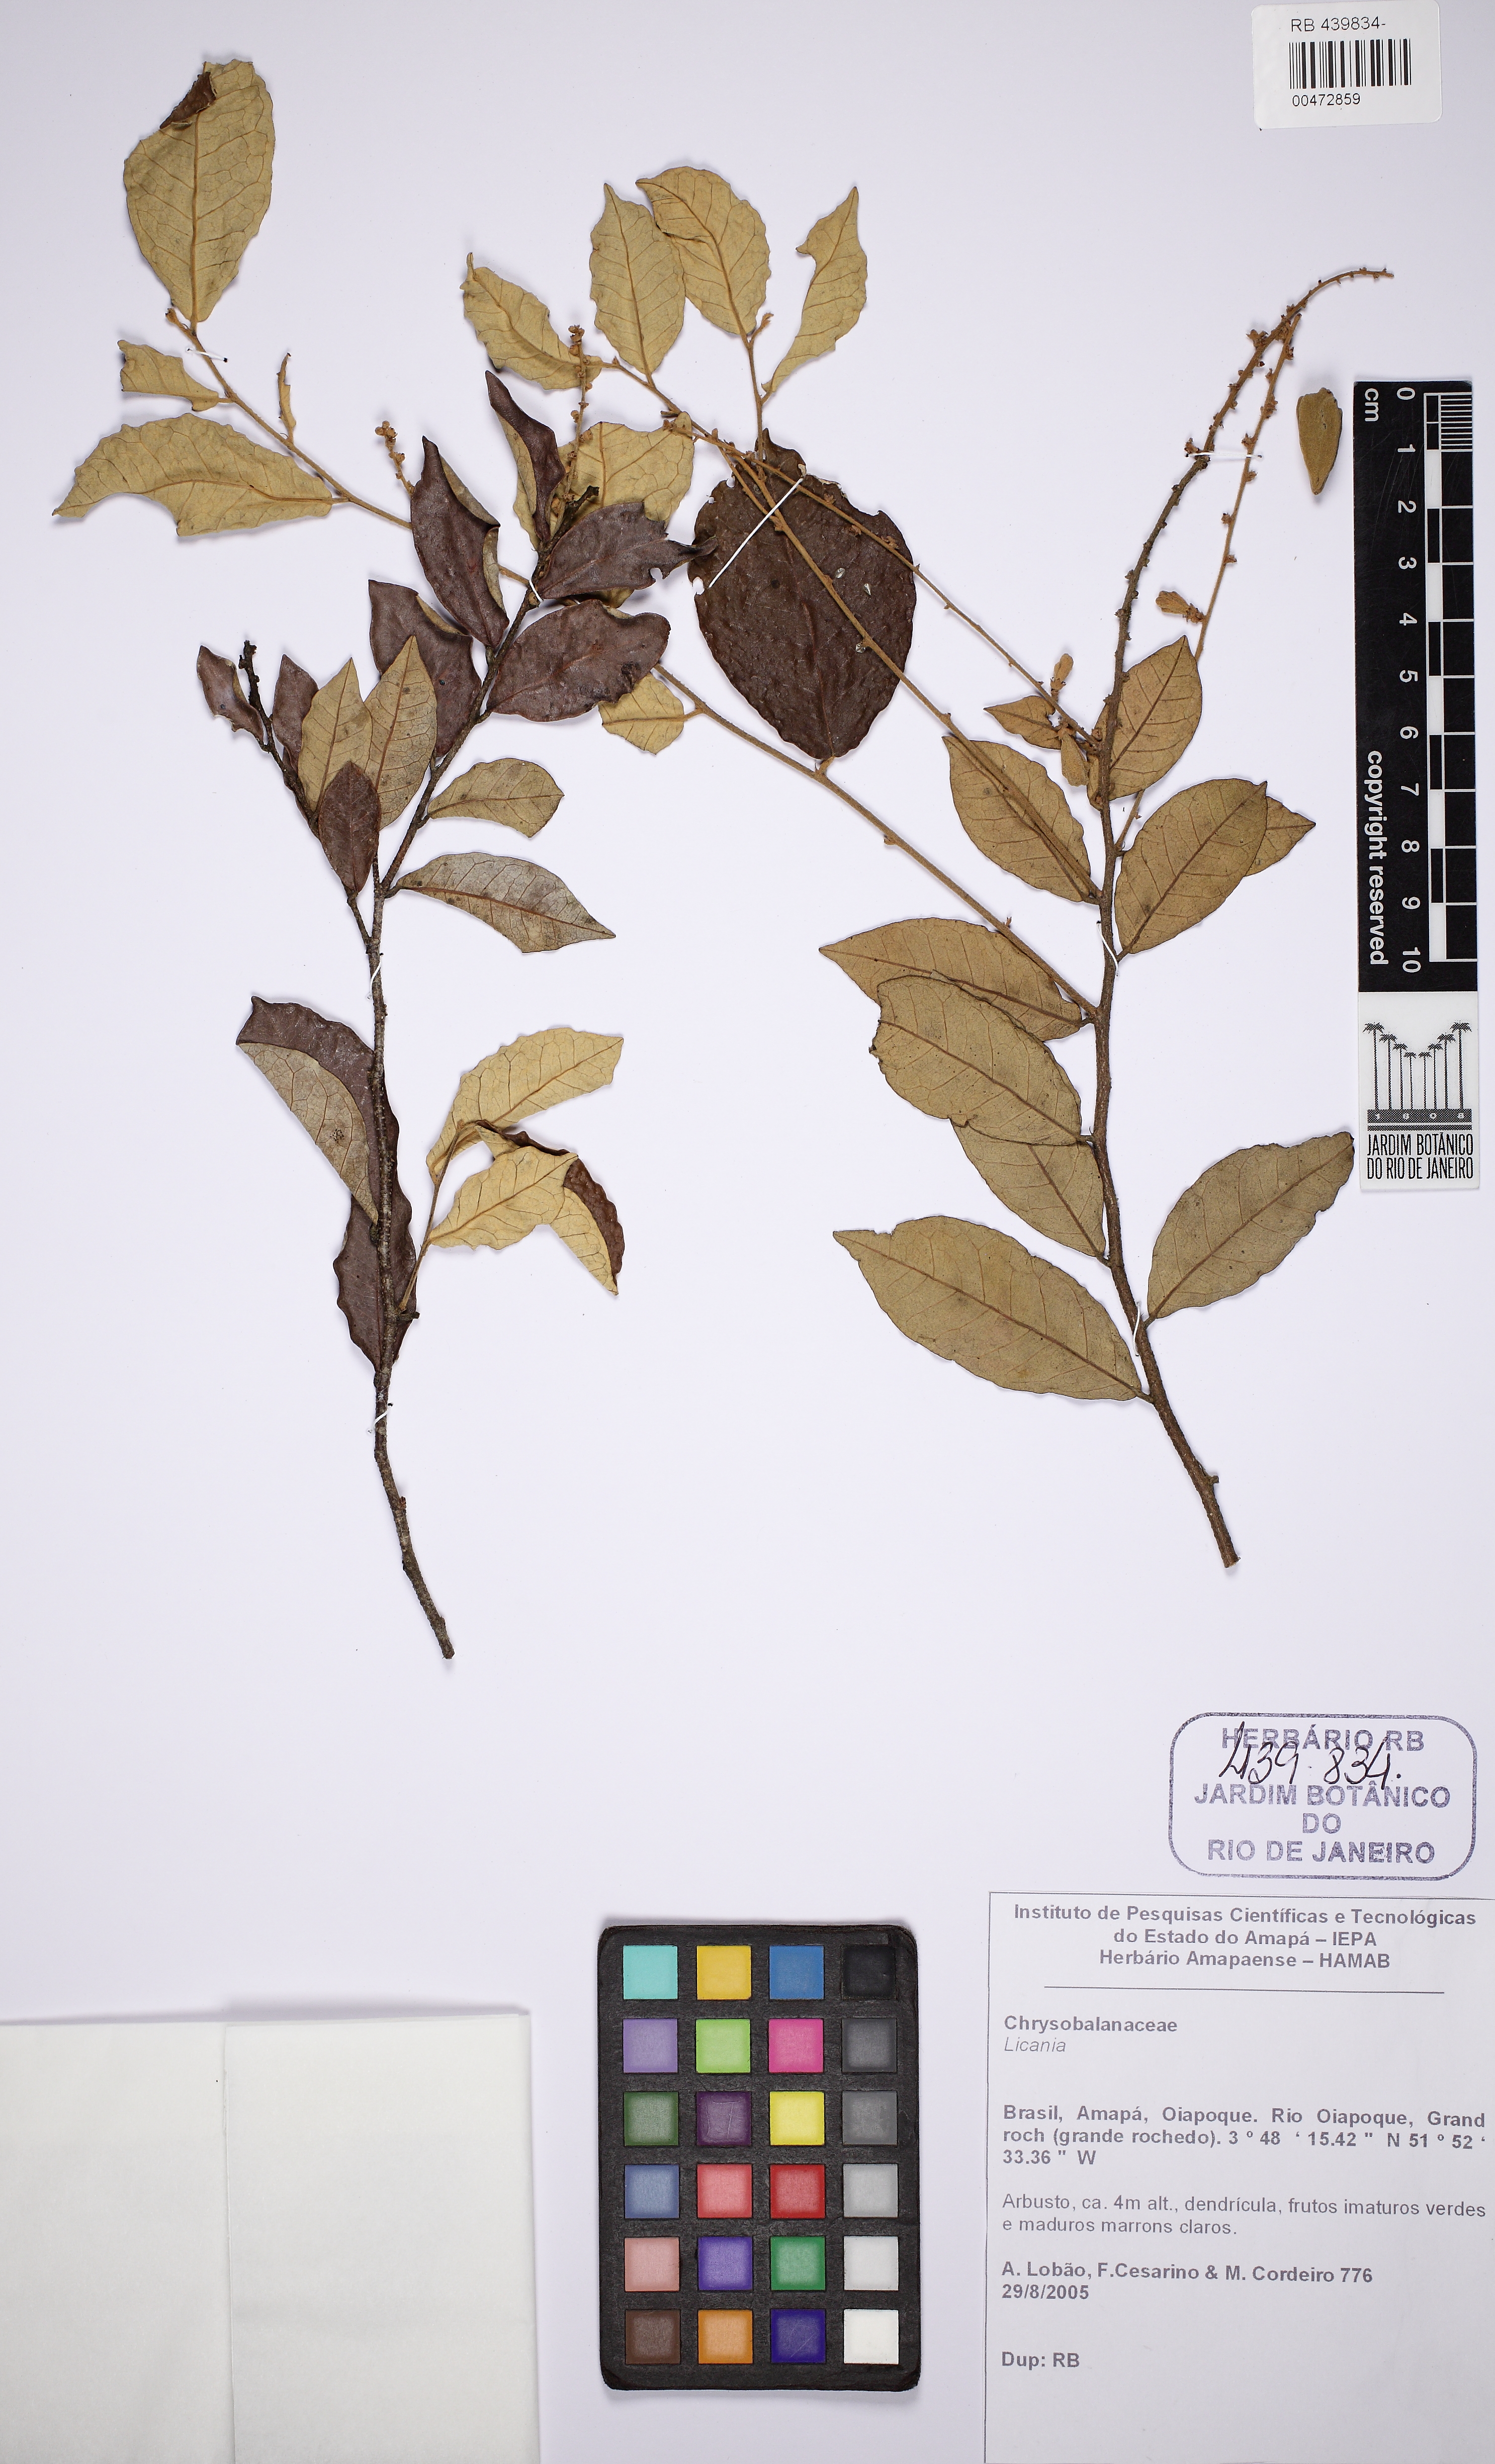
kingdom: Plantae
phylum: Tracheophyta
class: Magnoliopsida
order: Malpighiales
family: Chrysobalanaceae
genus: Licania
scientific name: Licania
